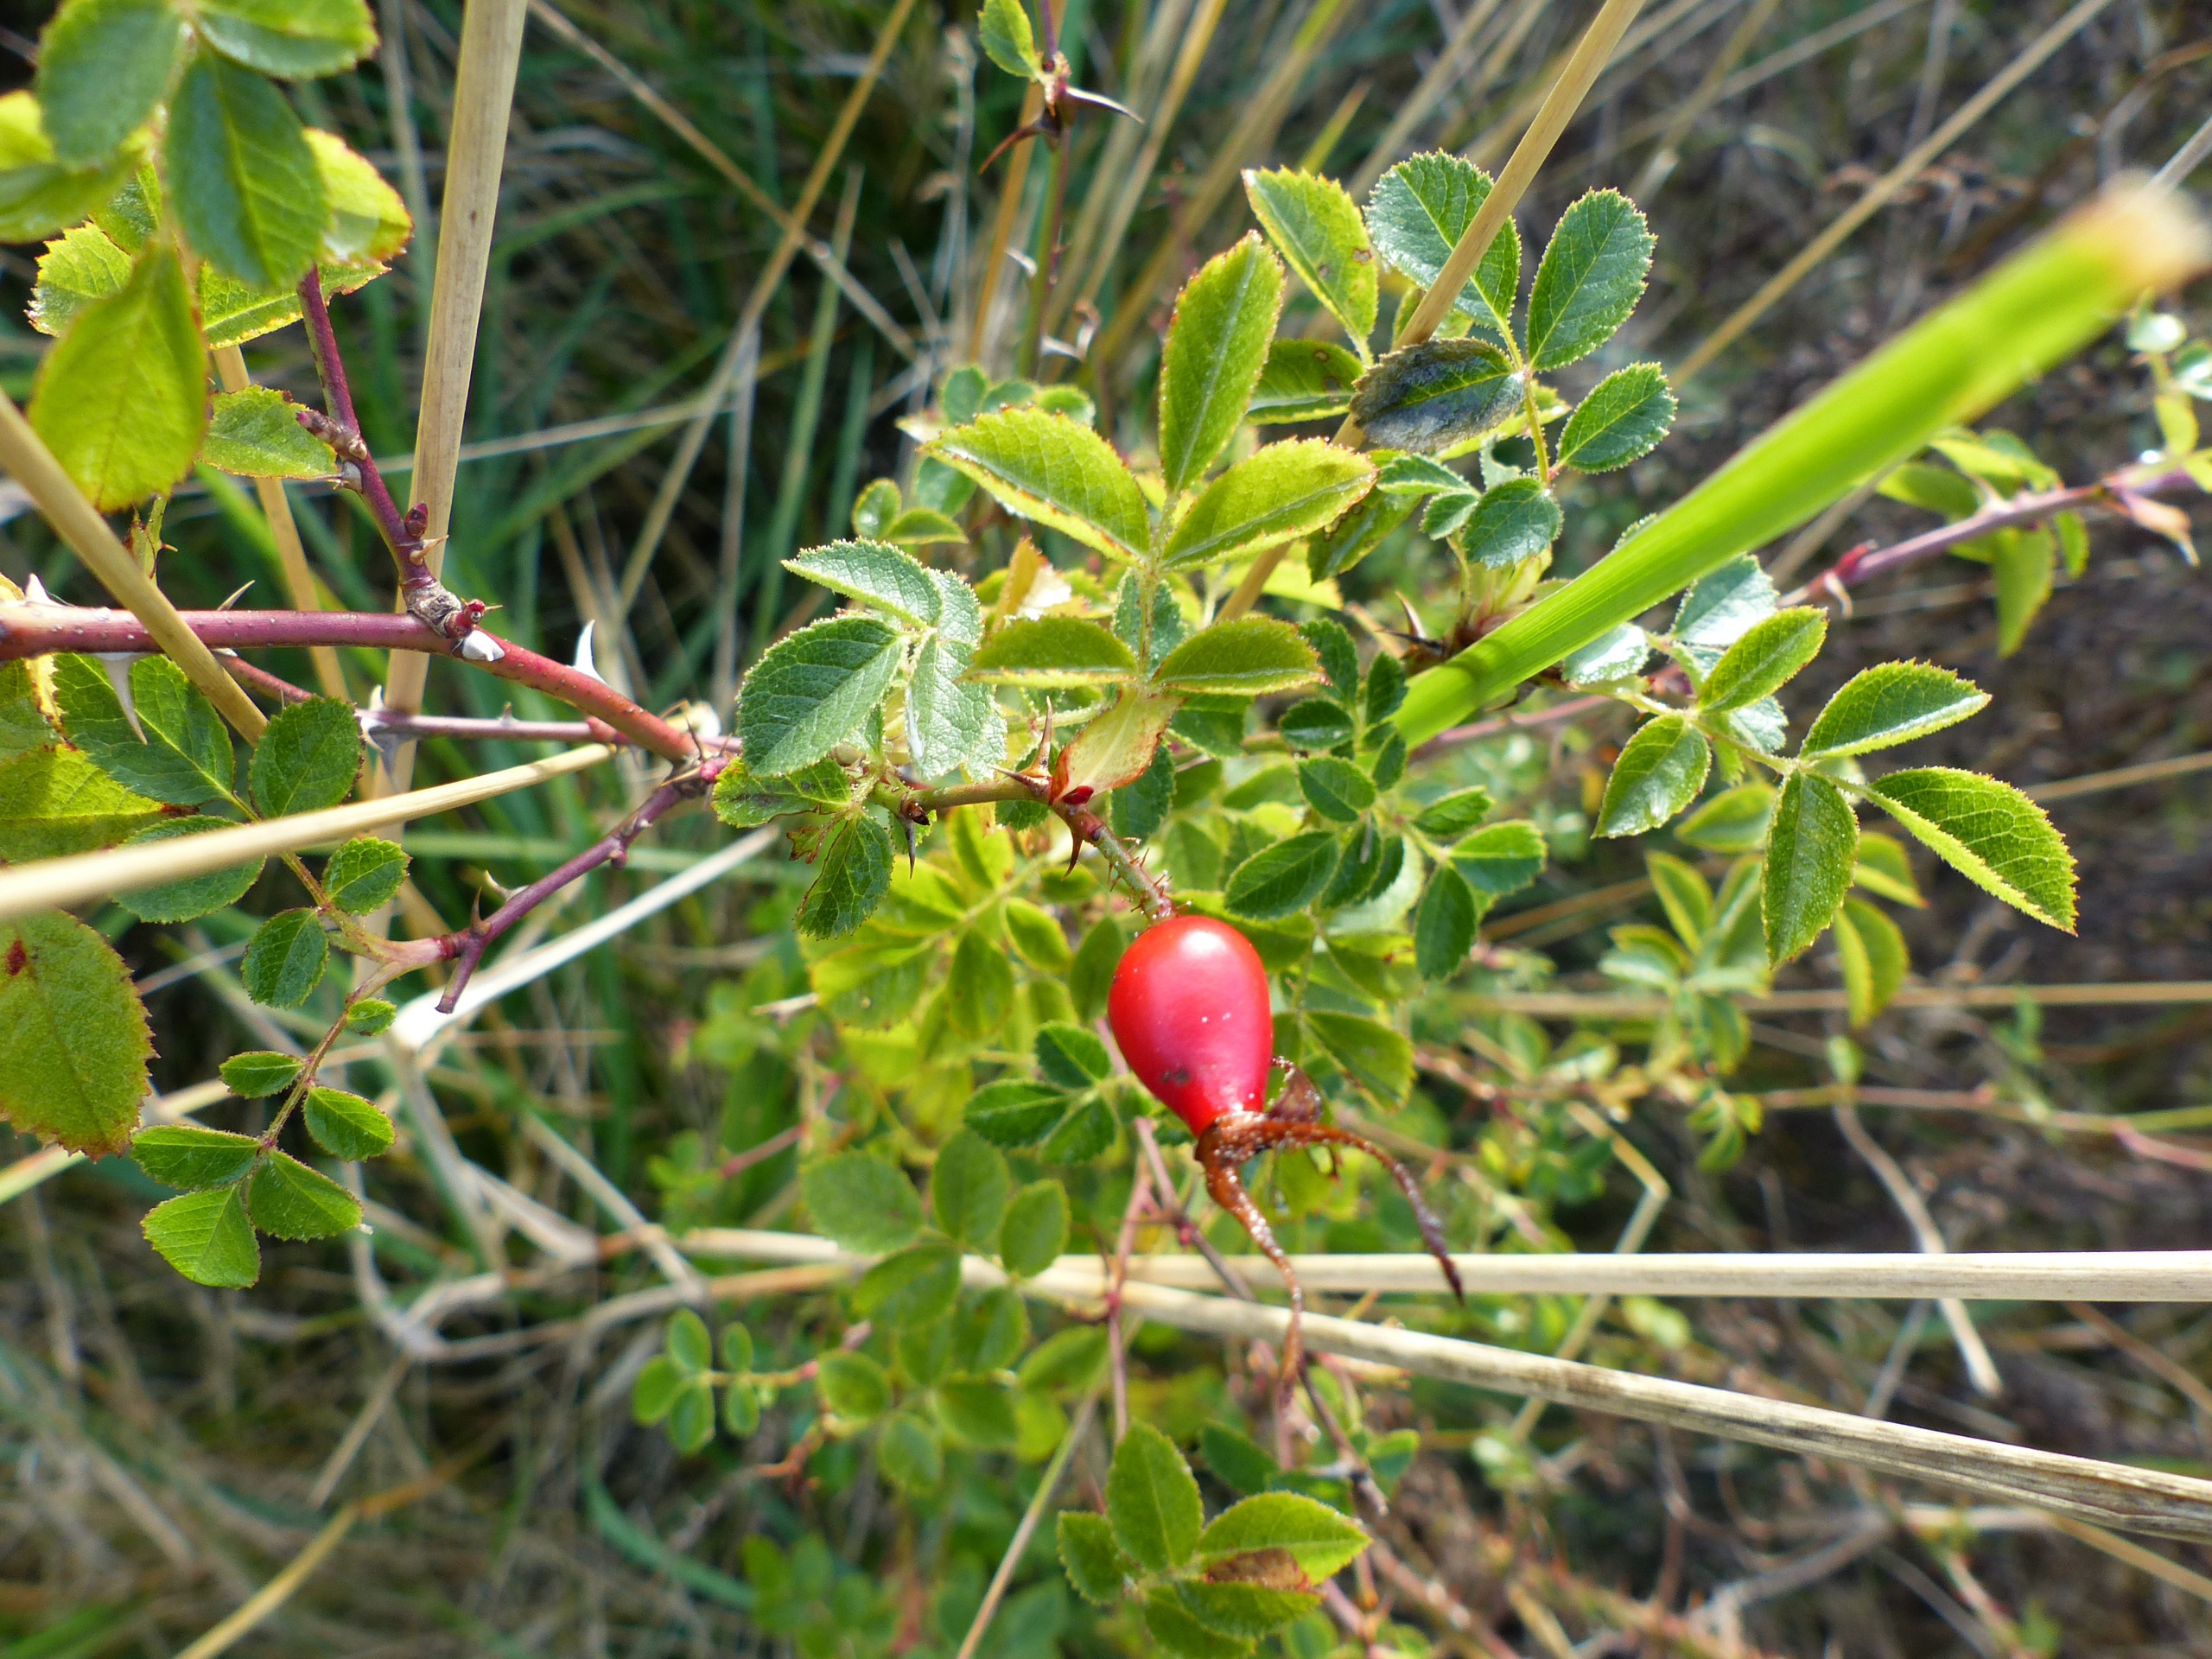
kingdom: Plantae
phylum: Tracheophyta
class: Magnoliopsida
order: Rosales
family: Rosaceae
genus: Rosa
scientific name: Rosa rubiginosa
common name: Æble-rose
